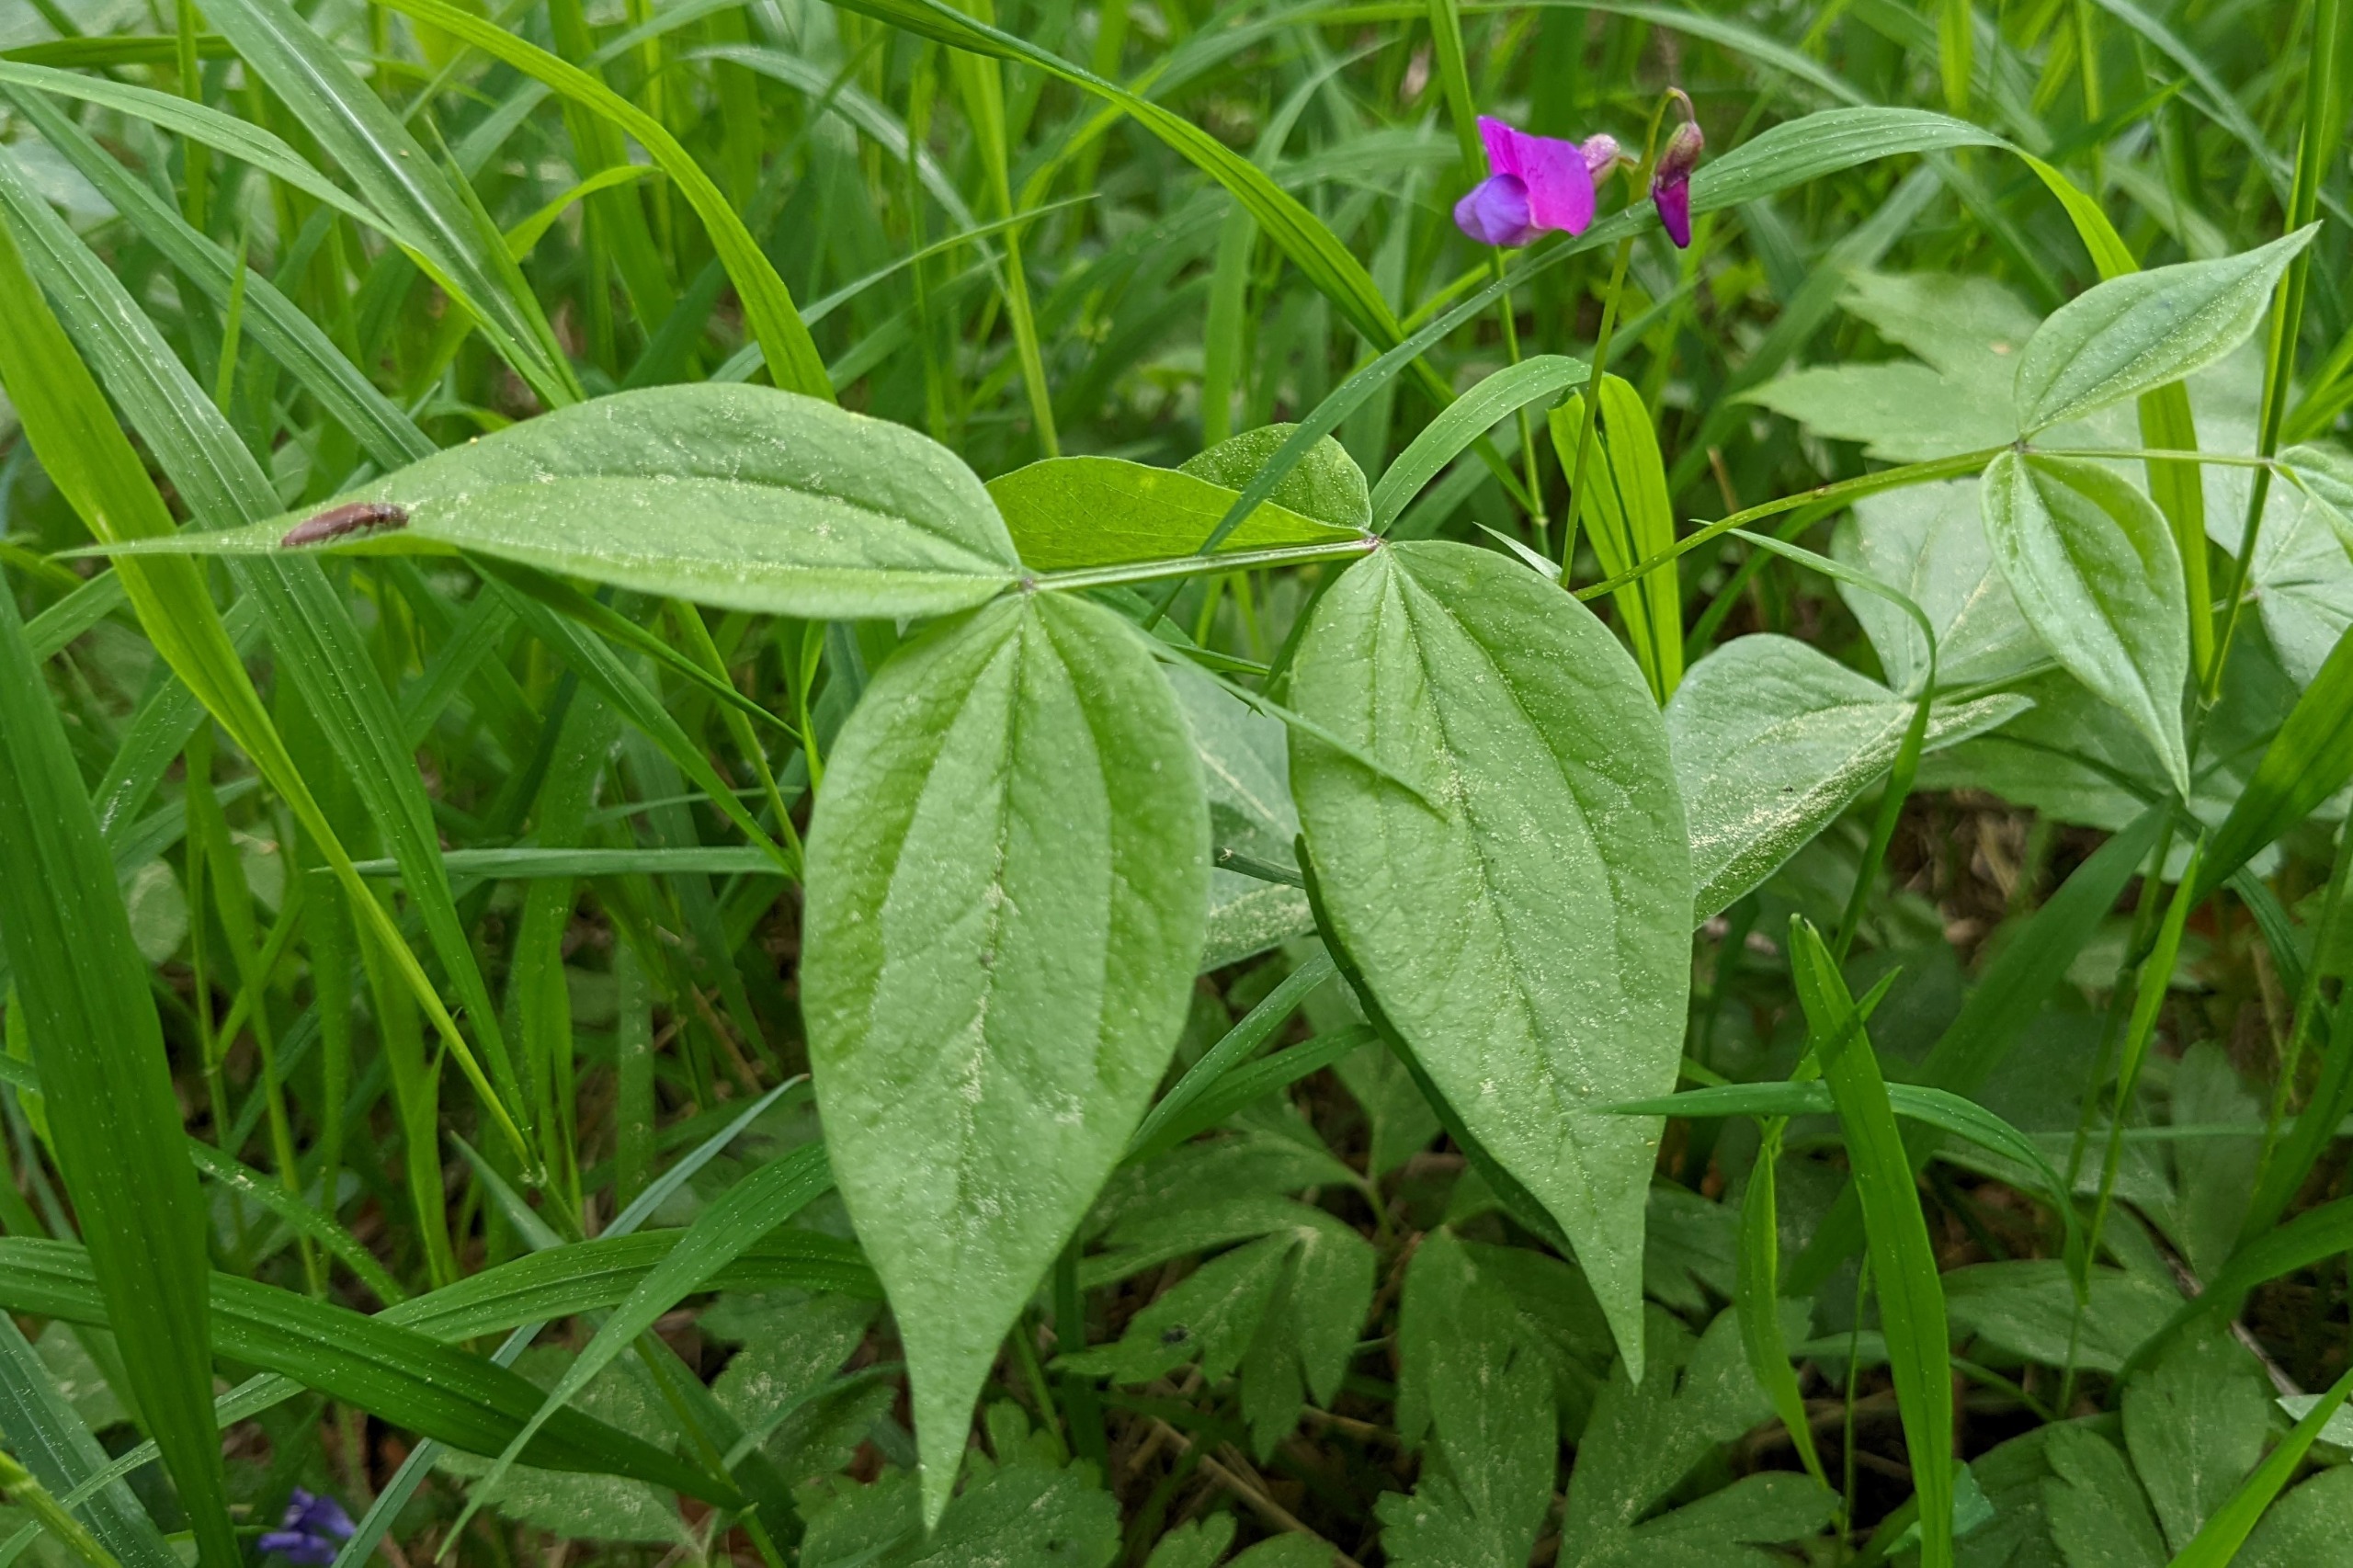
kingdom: Plantae
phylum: Tracheophyta
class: Magnoliopsida
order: Fabales
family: Fabaceae
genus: Lathyrus
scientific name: Lathyrus vernus
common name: Vår-fladbælg
